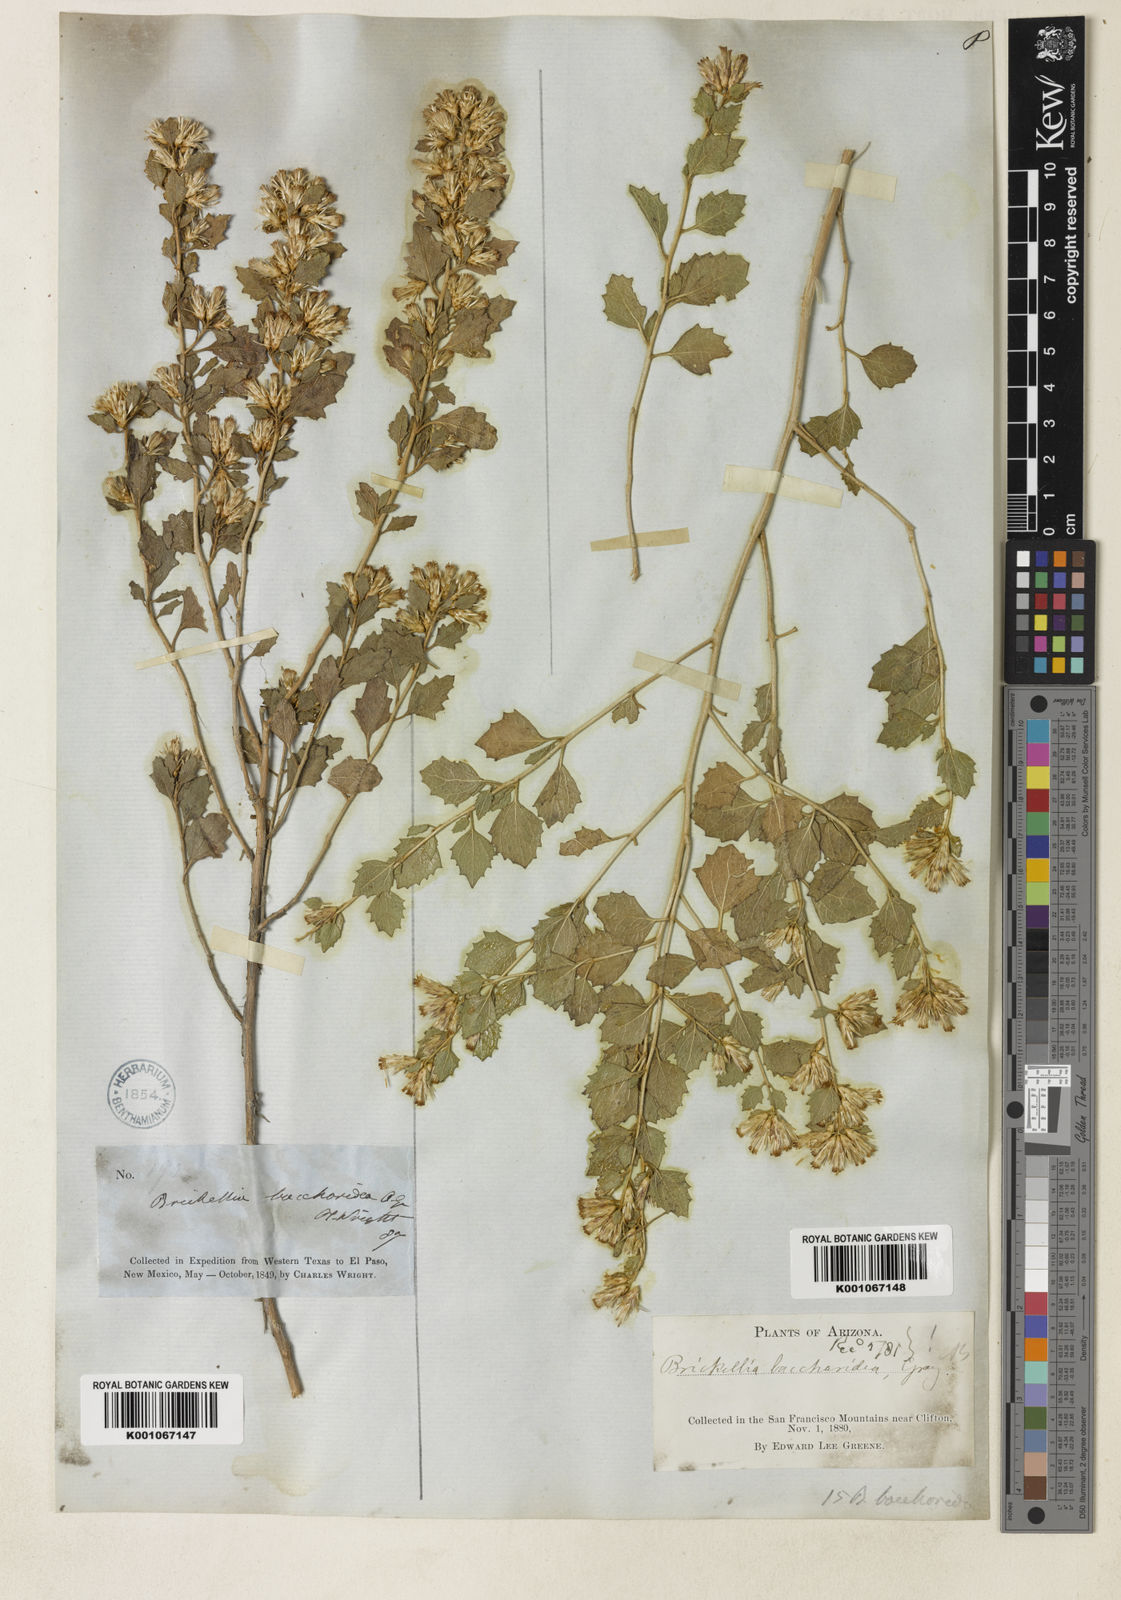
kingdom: Plantae
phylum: Tracheophyta
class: Magnoliopsida
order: Asterales
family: Asteraceae
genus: Brickellia
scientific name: Brickellia baccharidea
